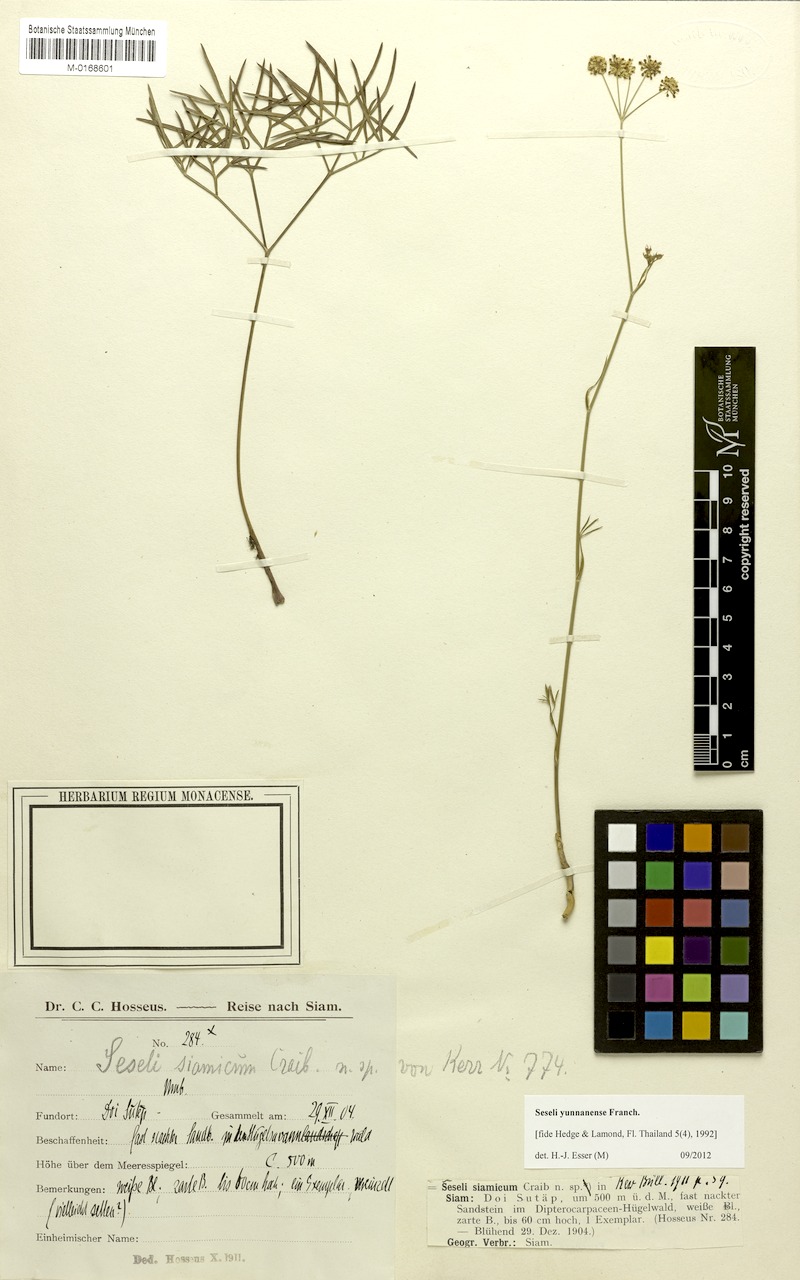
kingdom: Plantae
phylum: Tracheophyta
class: Magnoliopsida
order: Apiales
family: Apiaceae
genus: Seseli
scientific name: Seseli yunnanense
